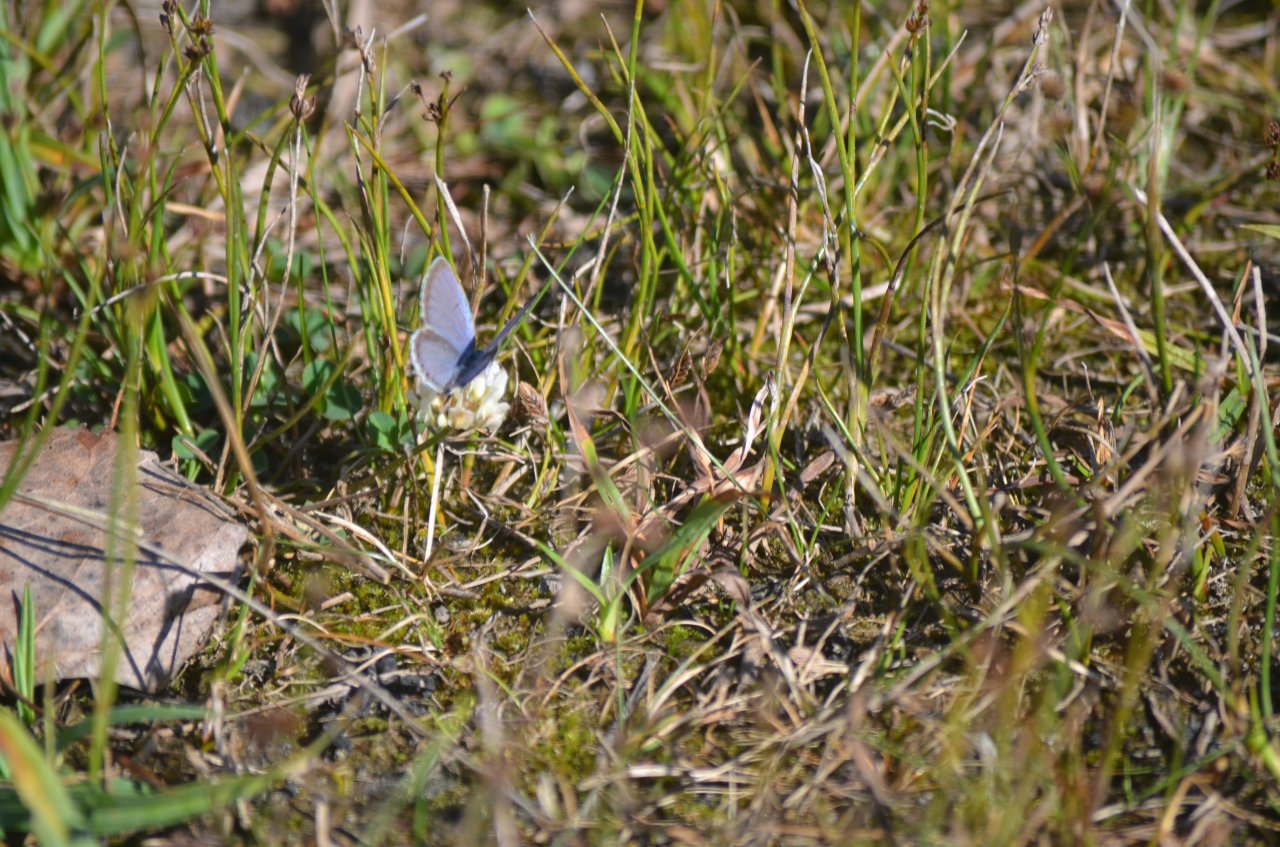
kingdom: Animalia
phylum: Arthropoda
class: Insecta
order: Lepidoptera
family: Lycaenidae
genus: Elkalyce
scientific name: Elkalyce comyntas
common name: Eastern Tailed-Blue
